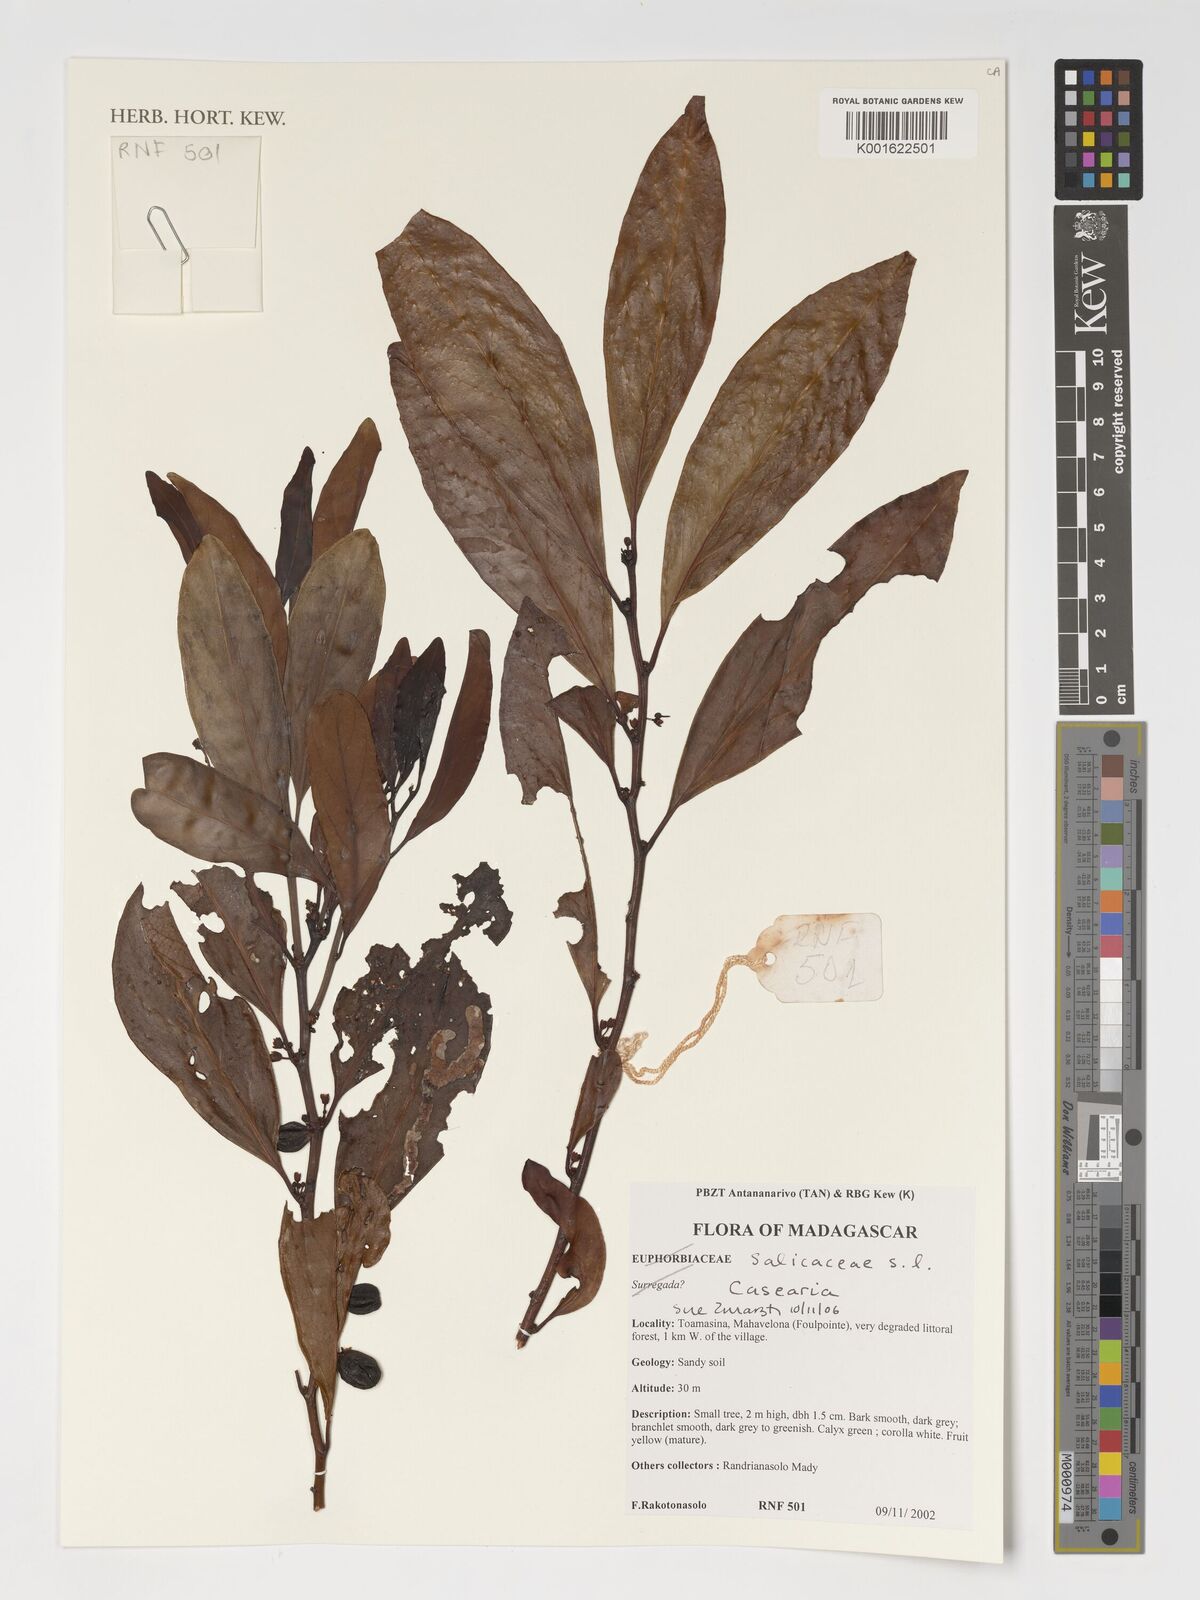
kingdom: Plantae
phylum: Tracheophyta
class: Magnoliopsida
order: Malpighiales
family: Salicaceae
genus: Casearia
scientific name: Casearia
